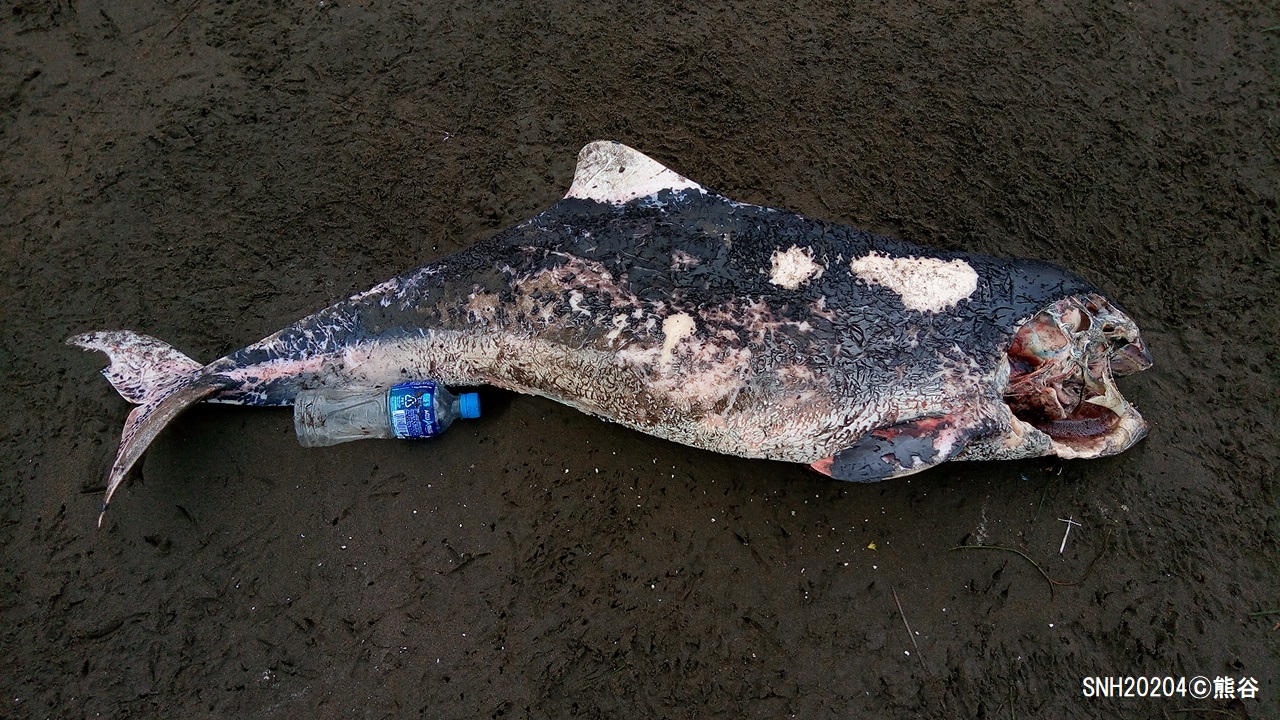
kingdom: Animalia
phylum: Chordata
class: Mammalia
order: Cetacea
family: Phocoenidae
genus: Phocoena
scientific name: Phocoena phocoena
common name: Harbour porpoise
